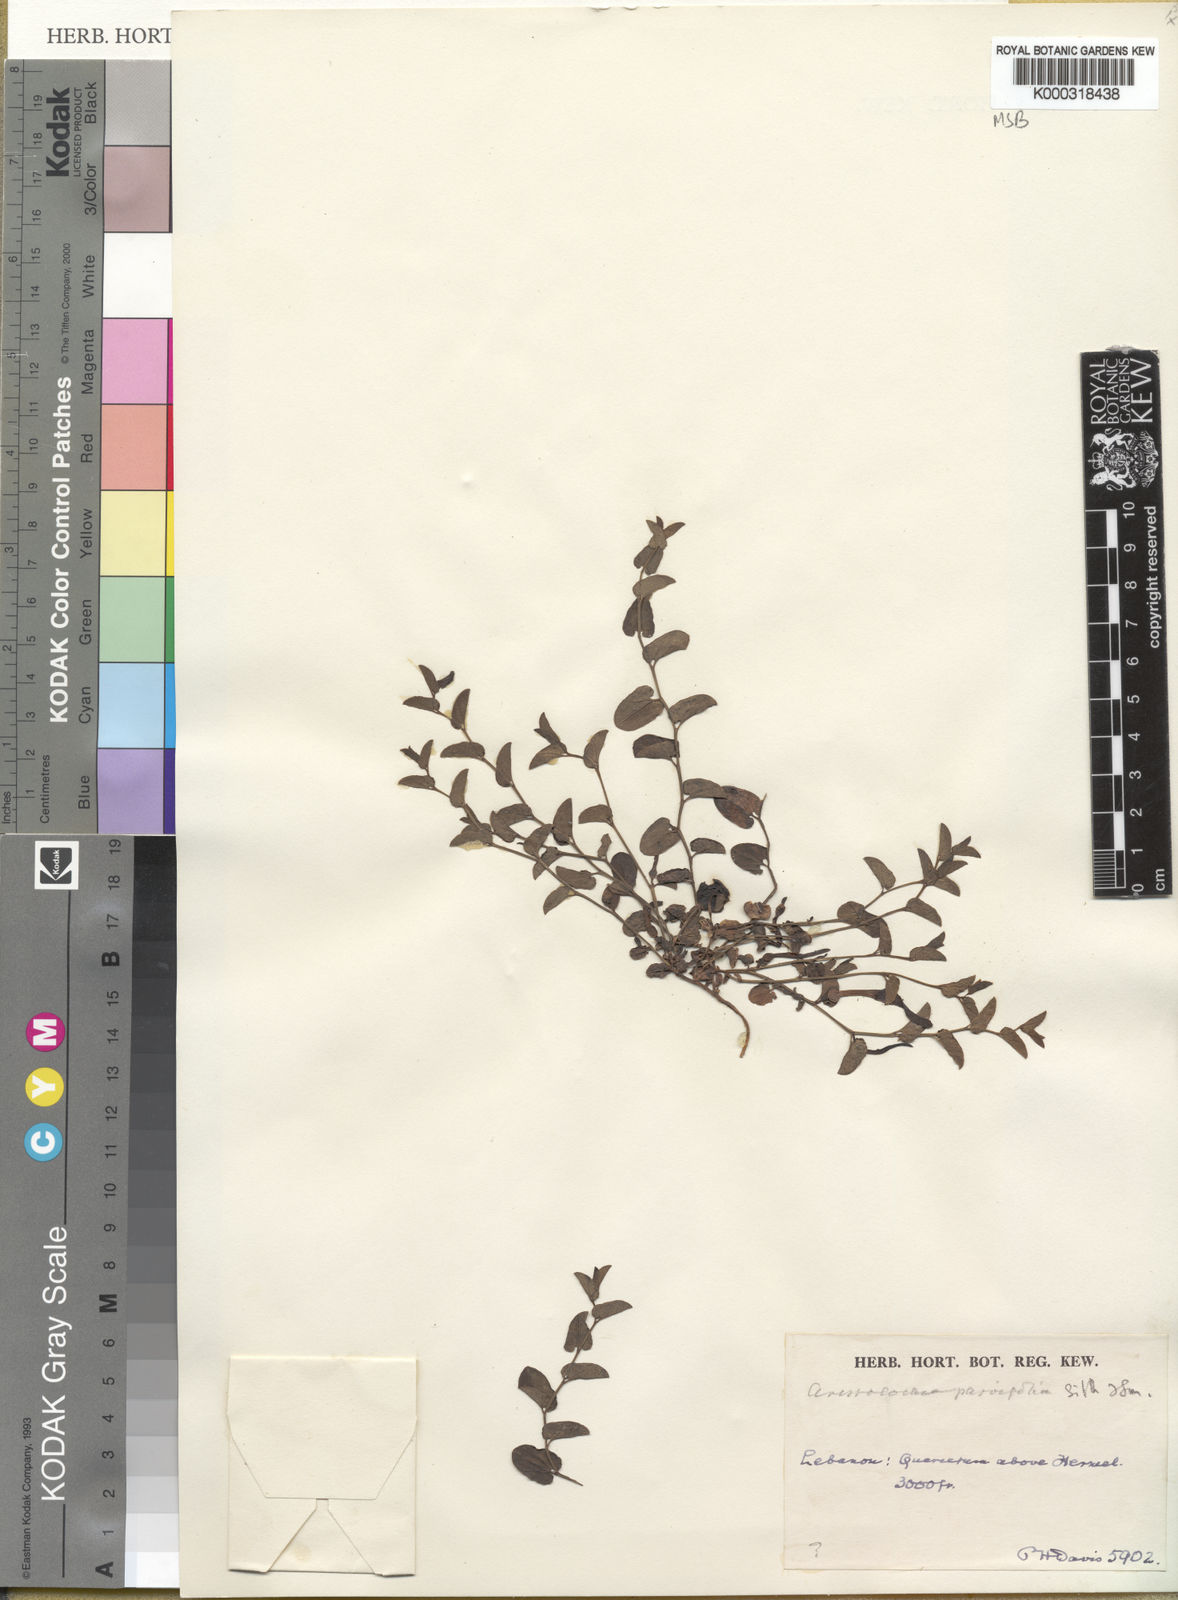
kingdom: Plantae
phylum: Tracheophyta
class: Magnoliopsida
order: Piperales
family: Aristolochiaceae
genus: Aristolochia
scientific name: Aristolochia parvifolia
